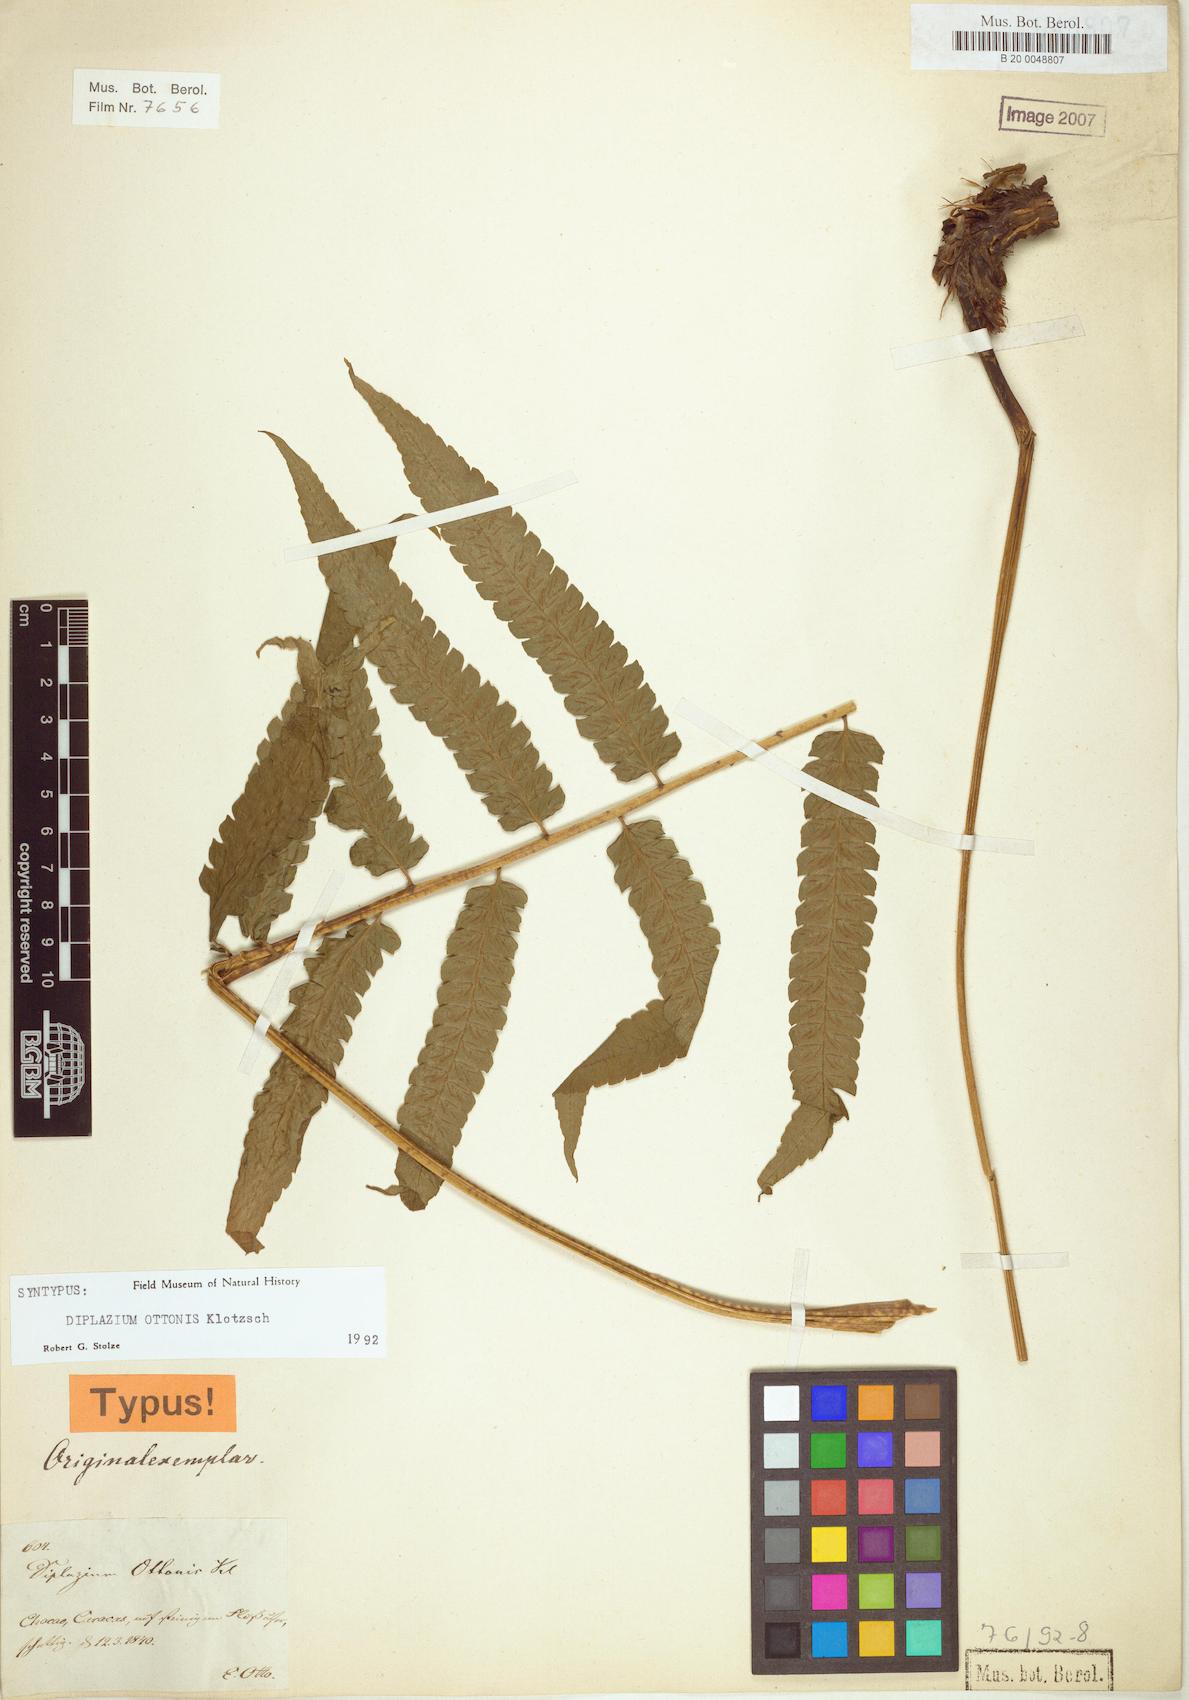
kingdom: Plantae
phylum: Tracheophyta
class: Polypodiopsida
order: Polypodiales
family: Athyriaceae
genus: Diplazium
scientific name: Diplazium ottonis
